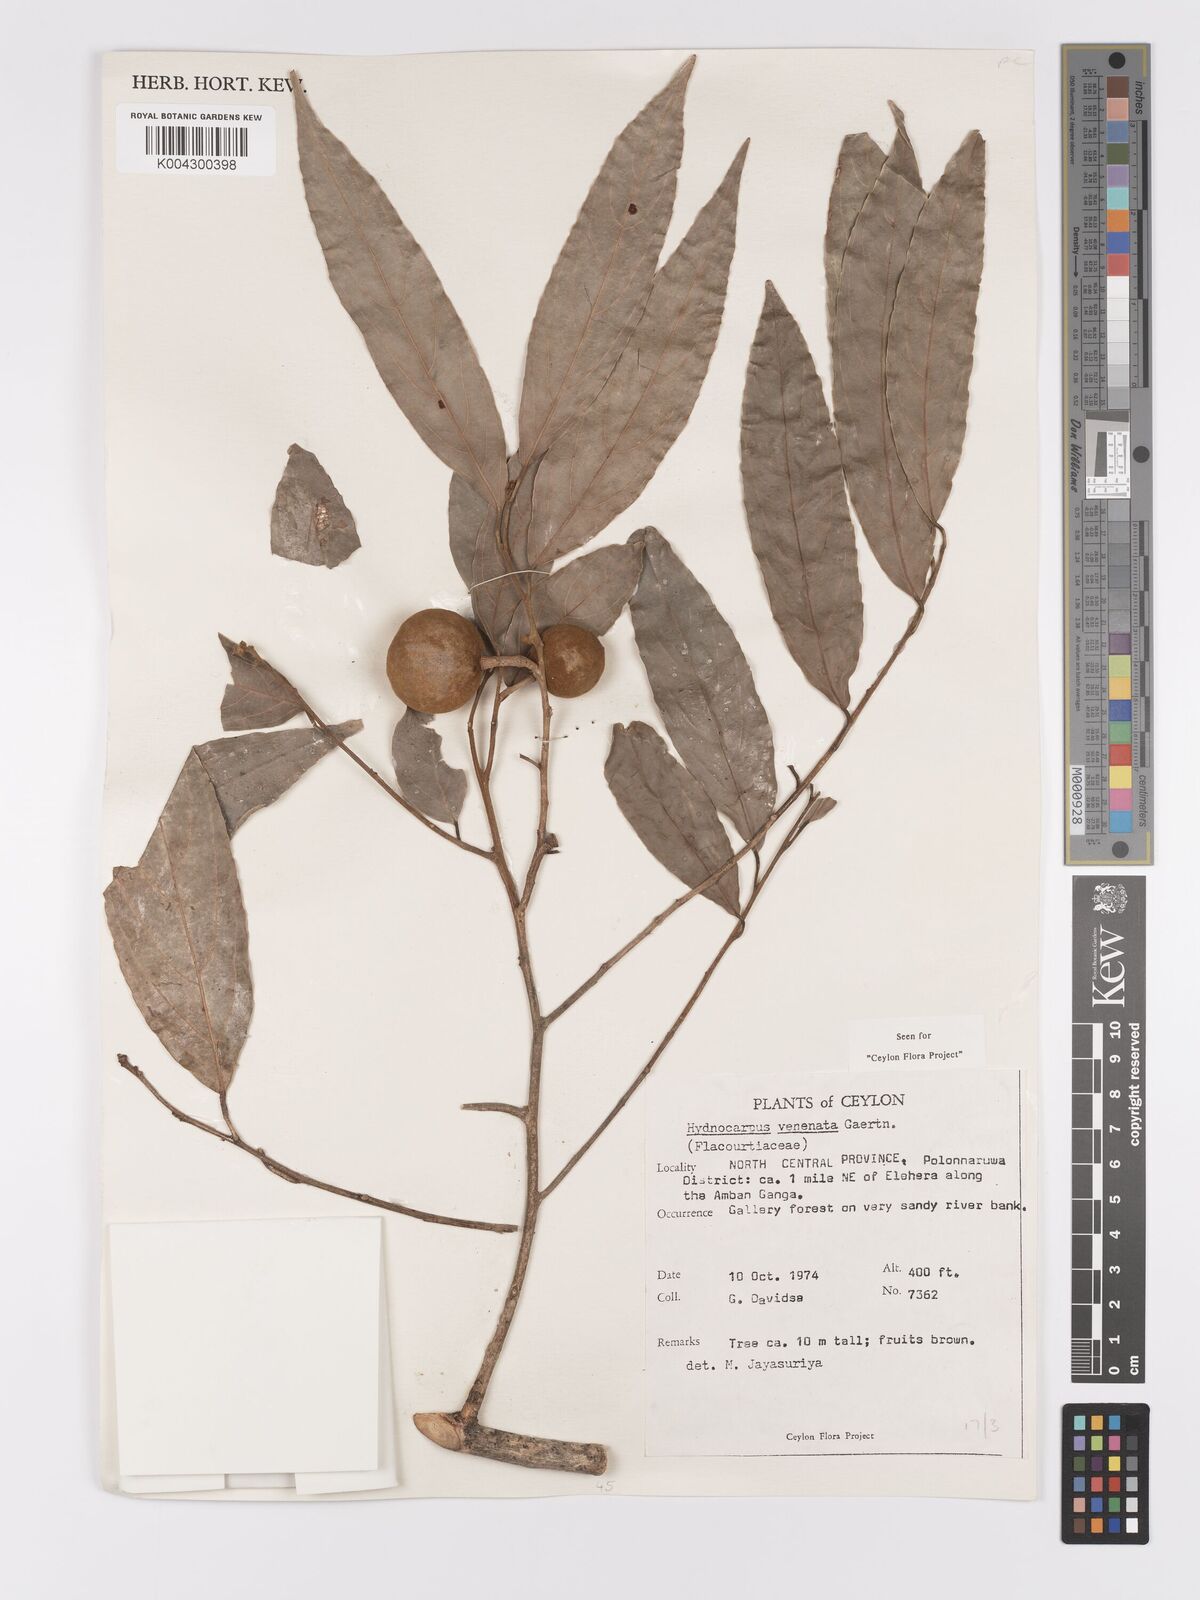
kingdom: Plantae
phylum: Tracheophyta
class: Magnoliopsida
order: Malpighiales
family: Achariaceae
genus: Hydnocarpus
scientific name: Hydnocarpus venenatus
